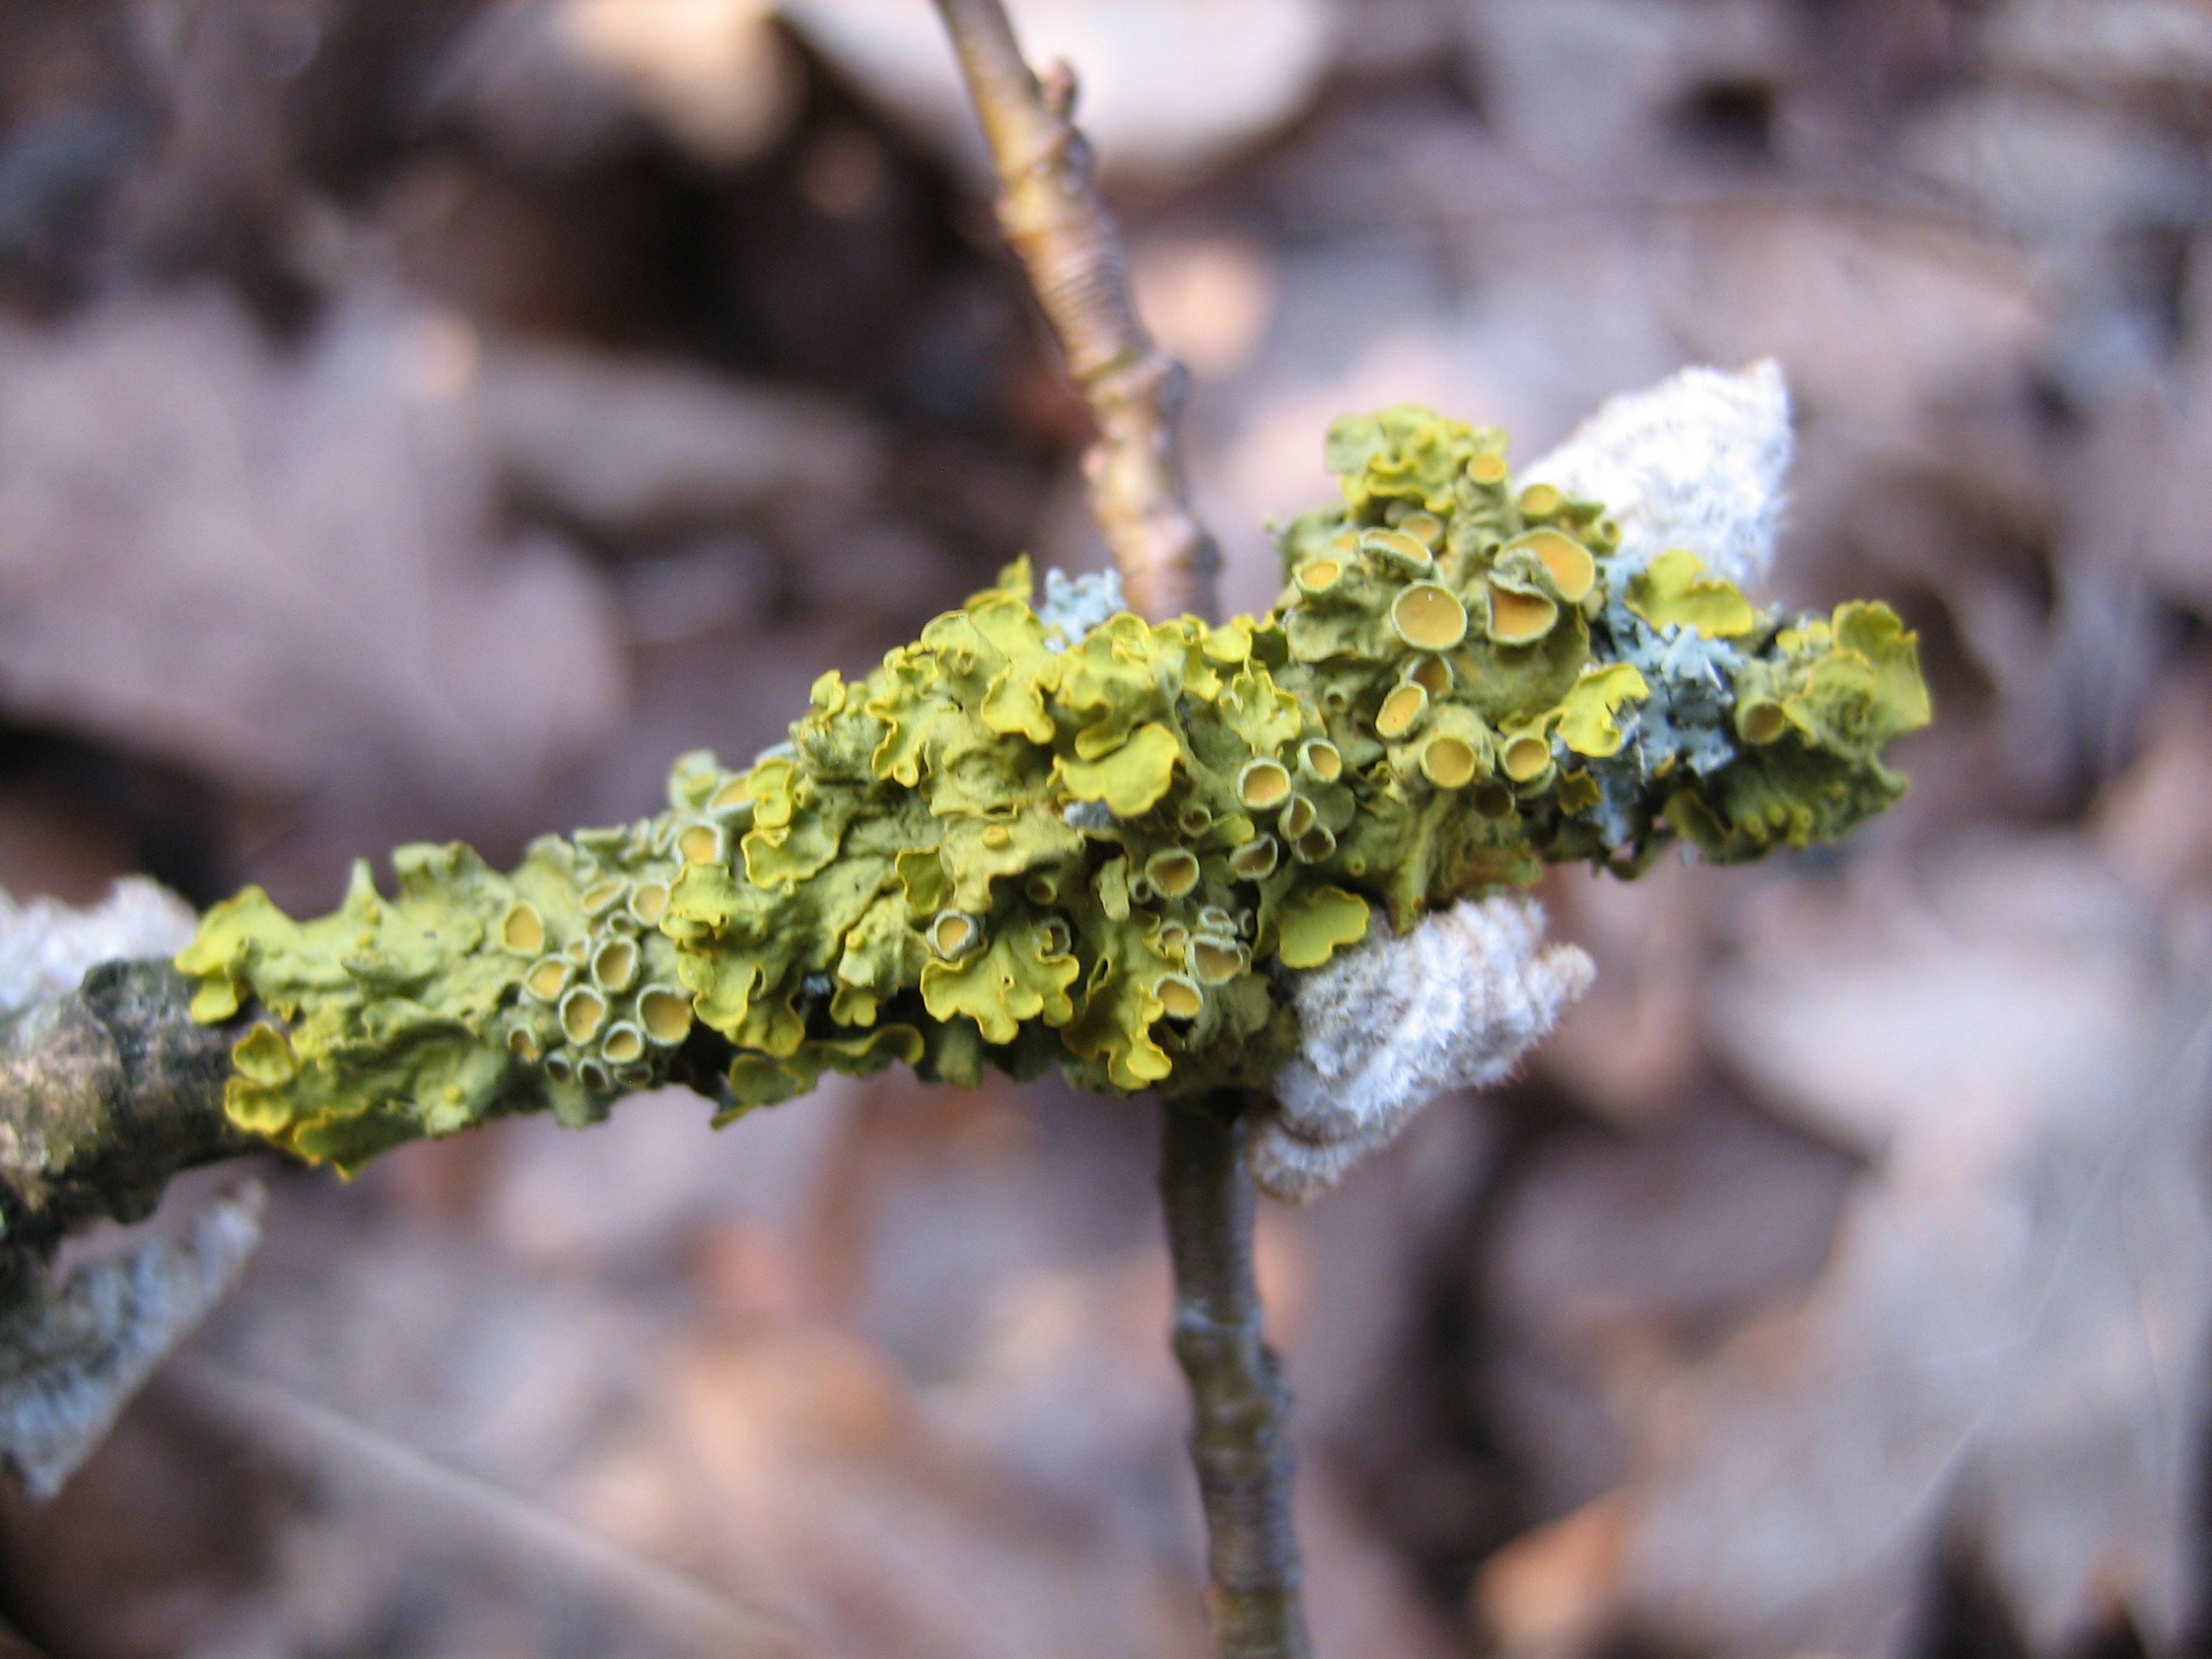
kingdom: Fungi
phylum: Ascomycota
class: Lecanoromycetes
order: Teloschistales
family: Teloschistaceae
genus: Xanthoria
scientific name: Xanthoria parietina
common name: Almindelig væggelav
